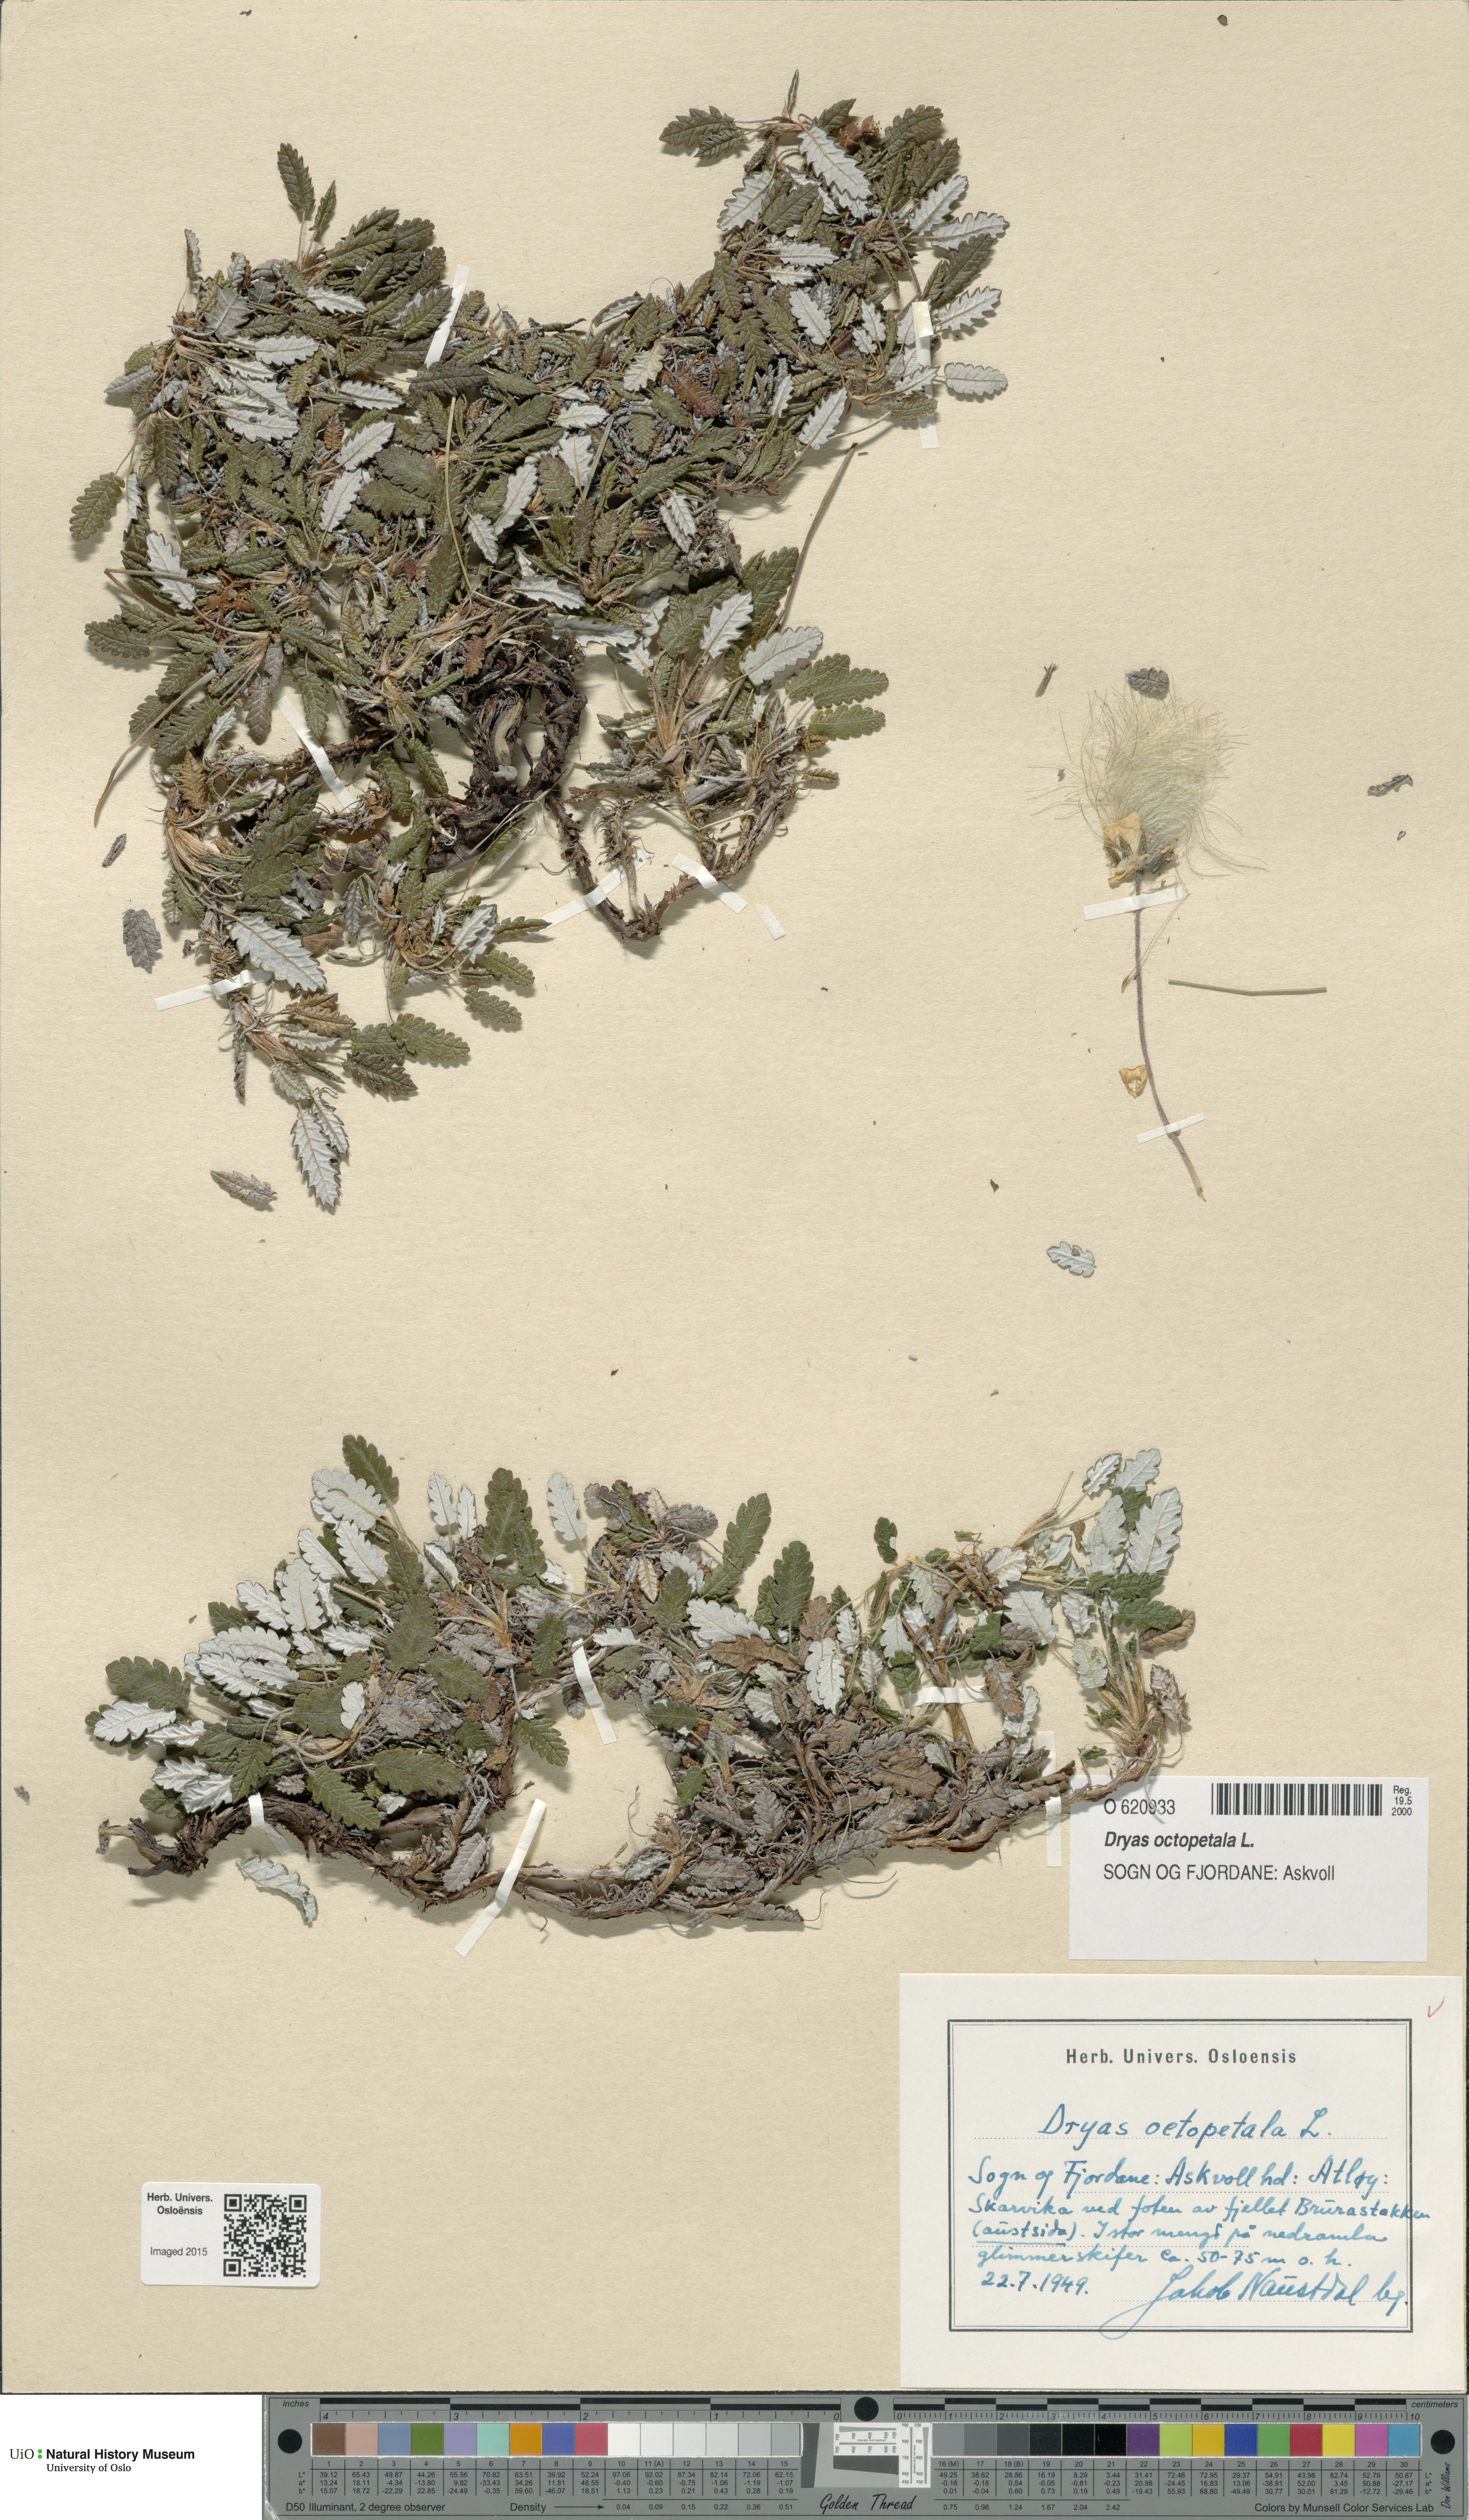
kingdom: Plantae
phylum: Tracheophyta
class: Magnoliopsida
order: Rosales
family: Rosaceae
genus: Dryas
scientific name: Dryas octopetala
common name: Eight-petal mountain-avens
